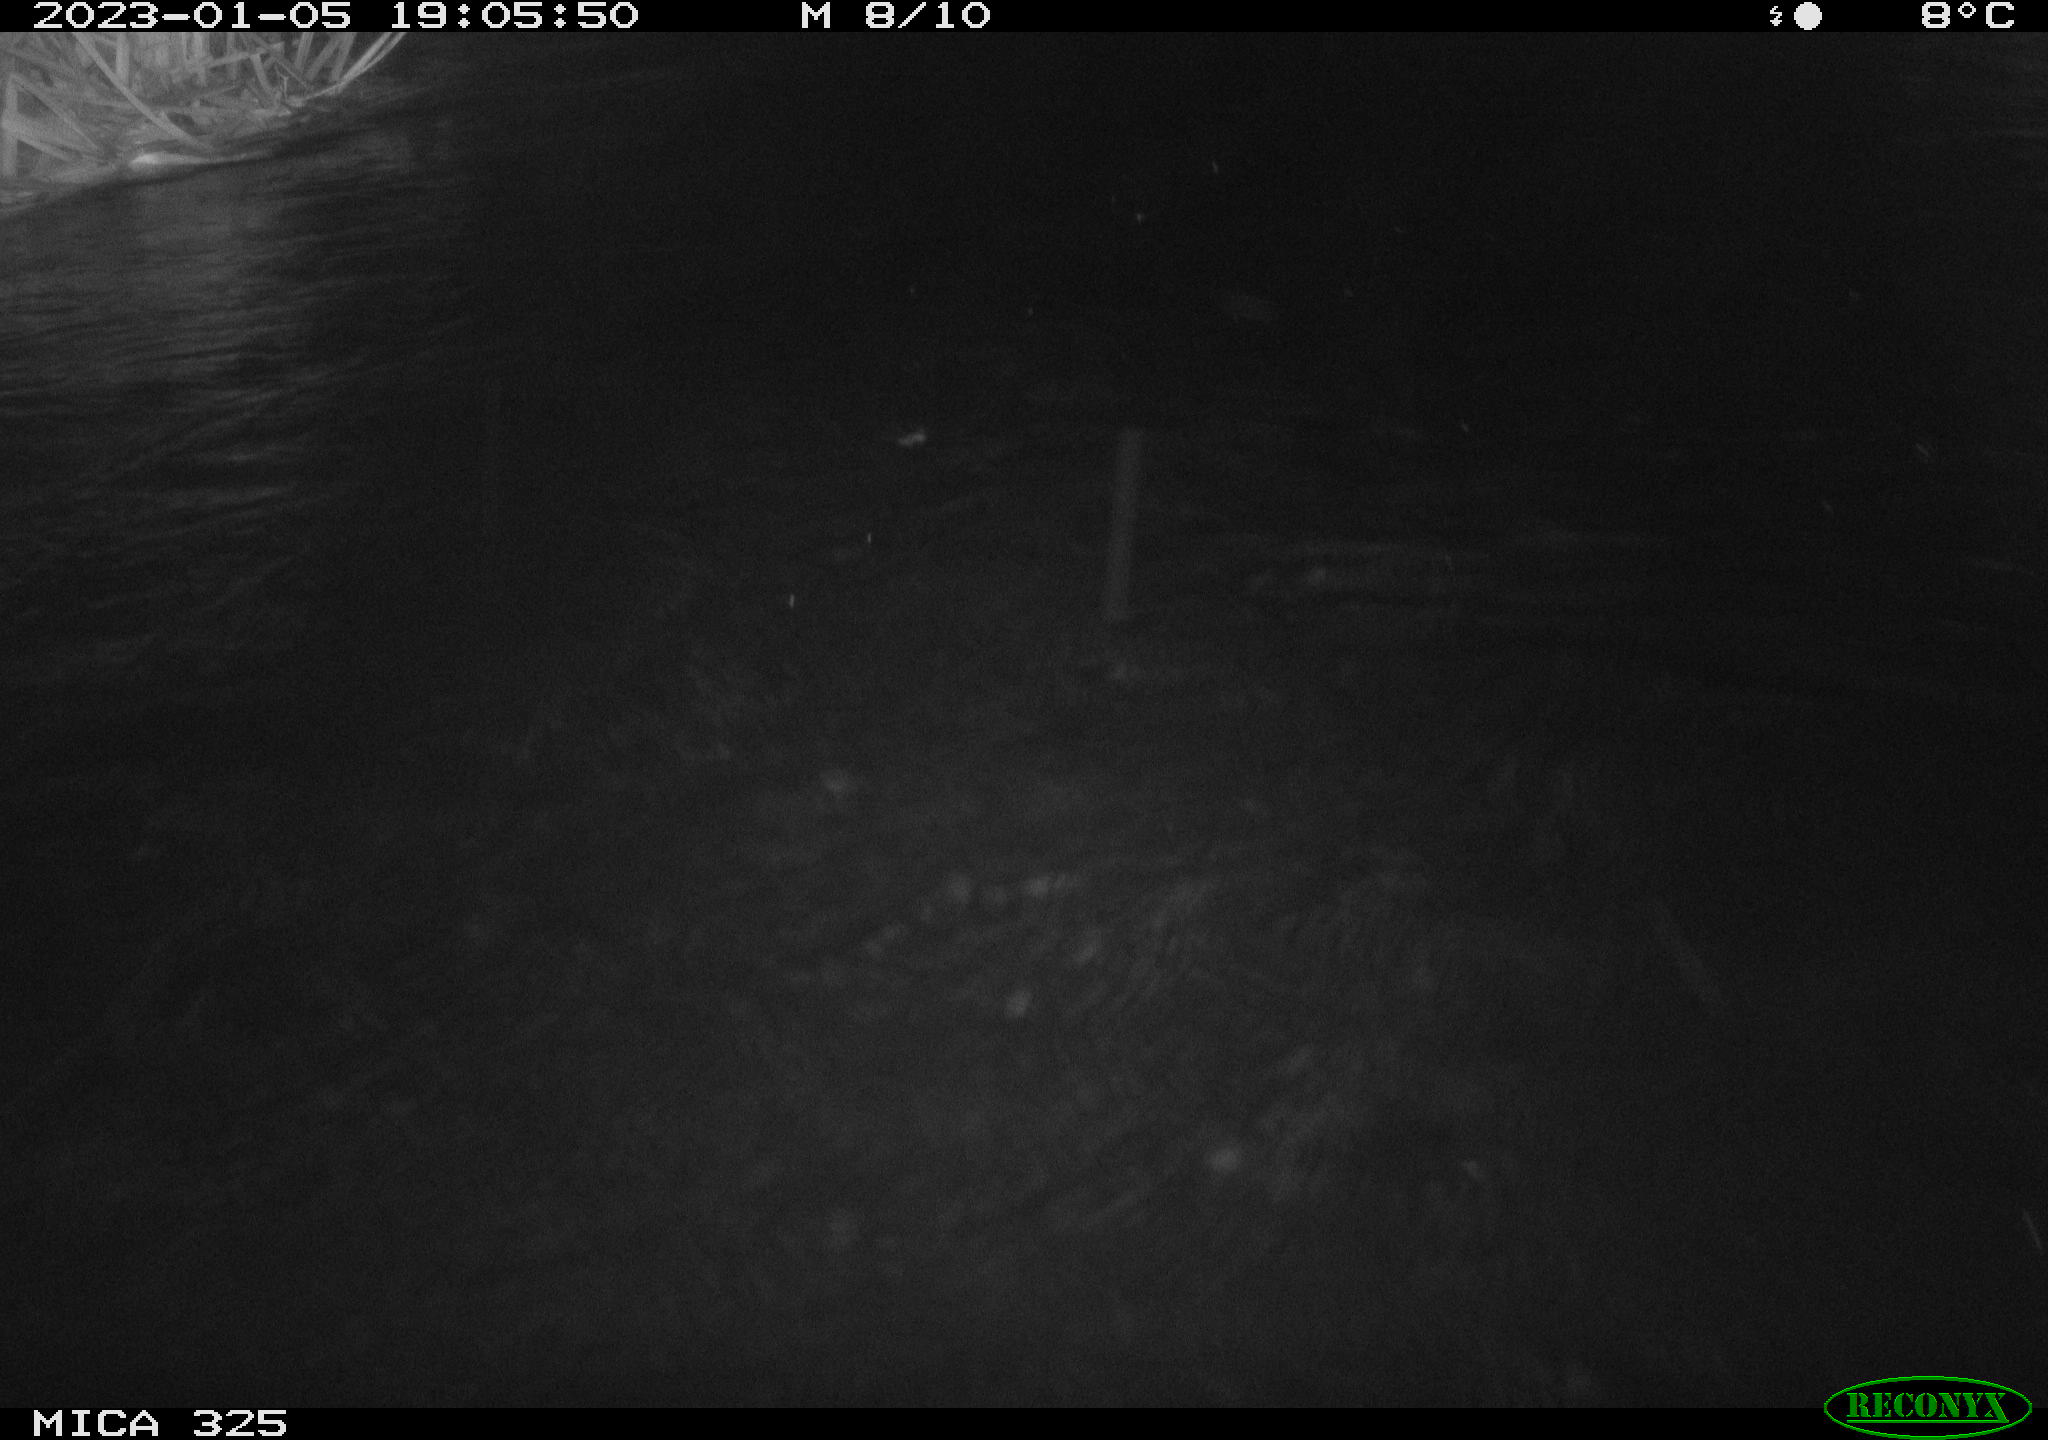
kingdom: Animalia
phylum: Chordata
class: Mammalia
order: Rodentia
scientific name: Rodentia
